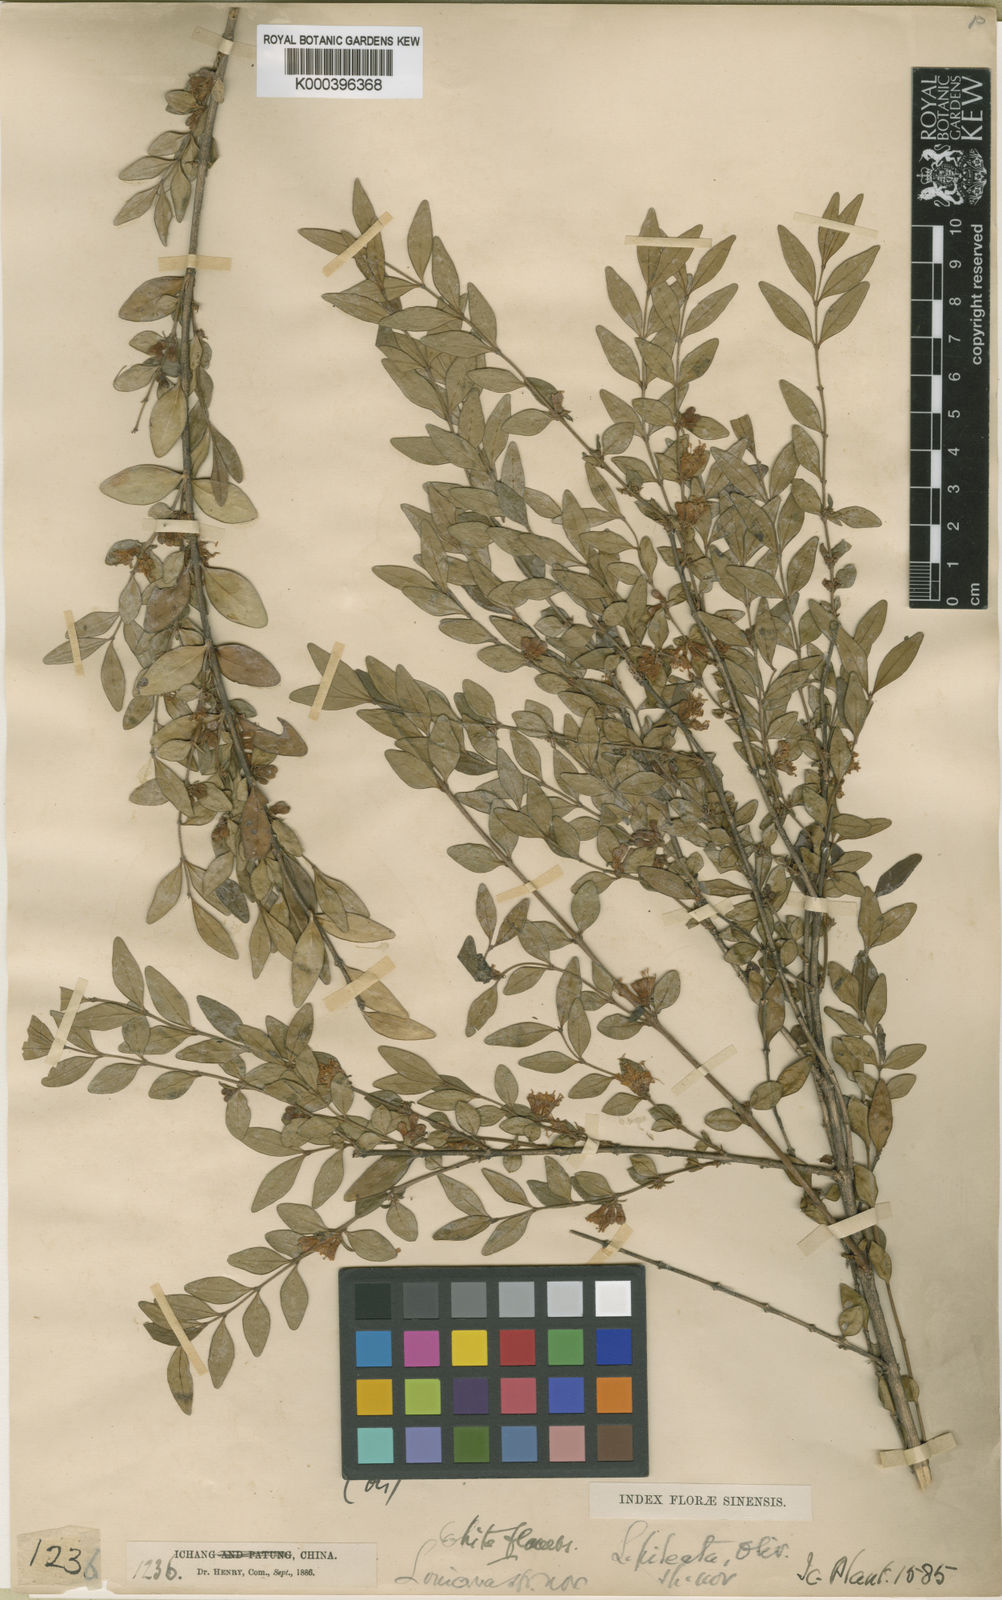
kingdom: Plantae
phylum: Tracheophyta
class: Magnoliopsida
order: Dipsacales
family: Caprifoliaceae
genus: Lonicera
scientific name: Lonicera pileata
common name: Box-leaved honeysuckle
